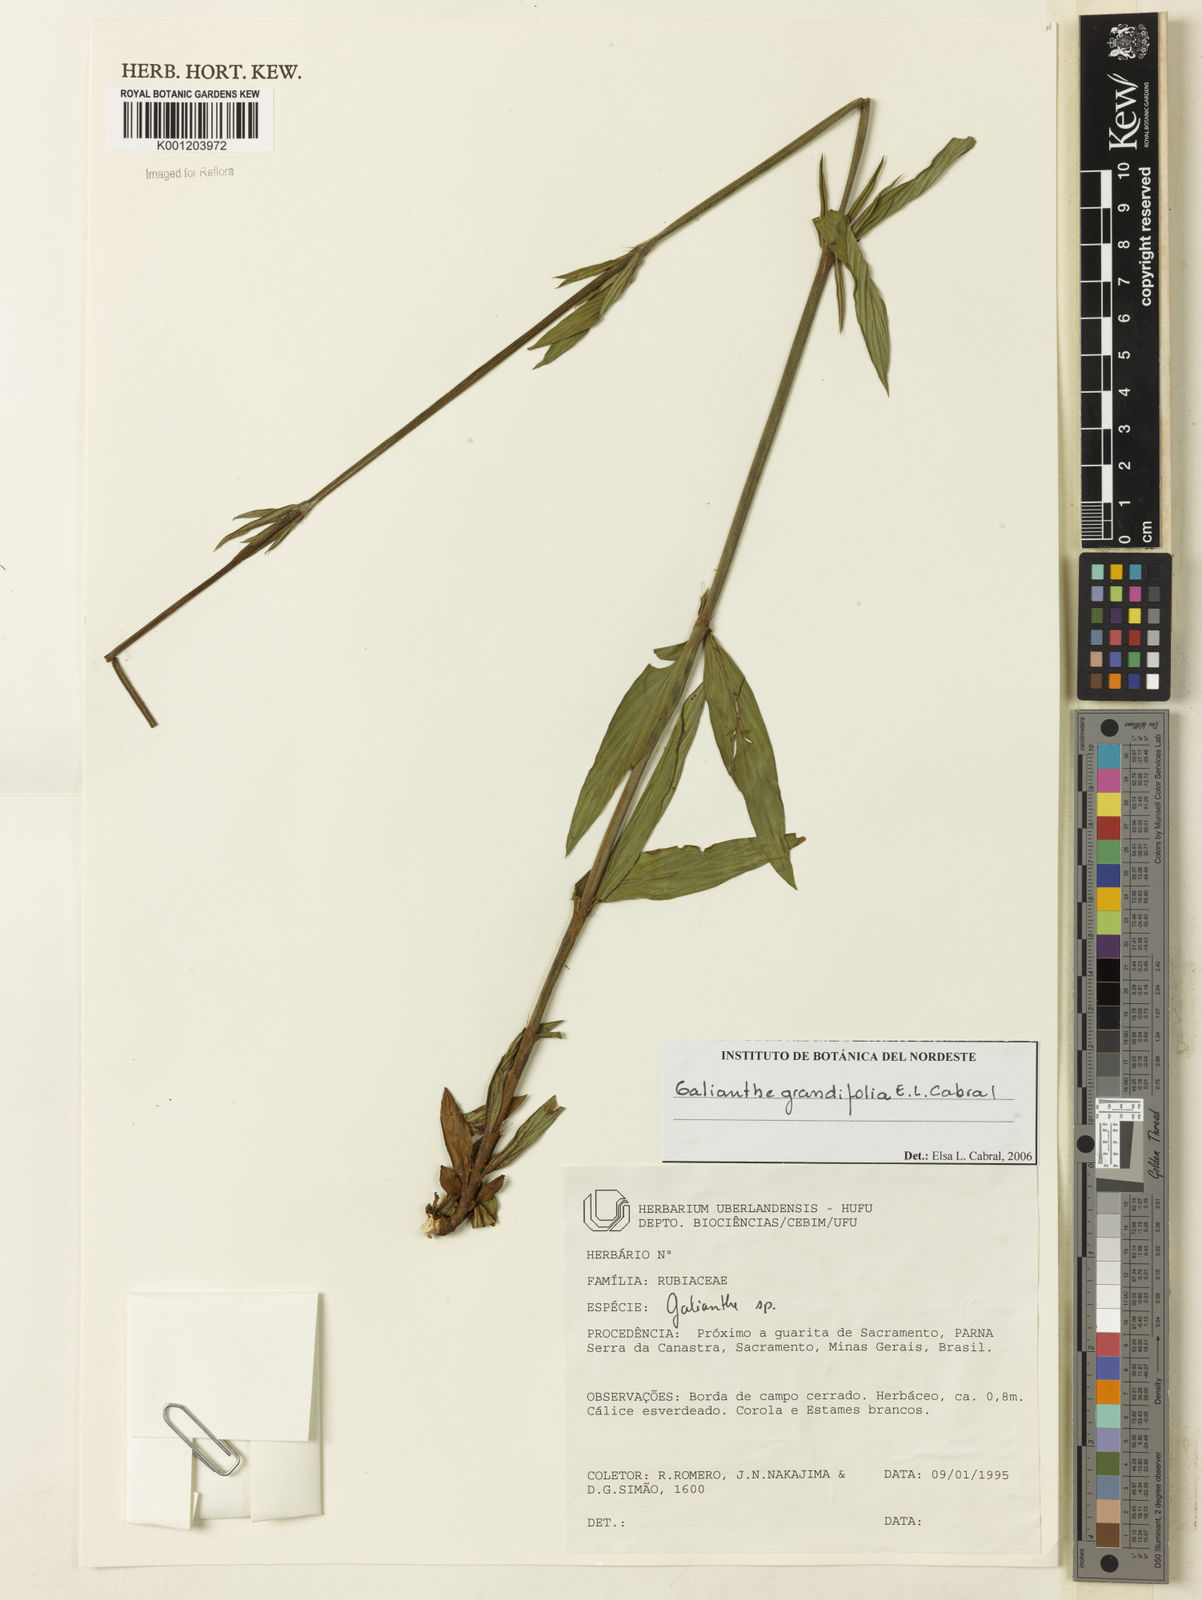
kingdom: Plantae
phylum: Tracheophyta
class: Magnoliopsida
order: Gentianales
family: Rubiaceae
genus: Galianthe
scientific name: Galianthe grandifolia
